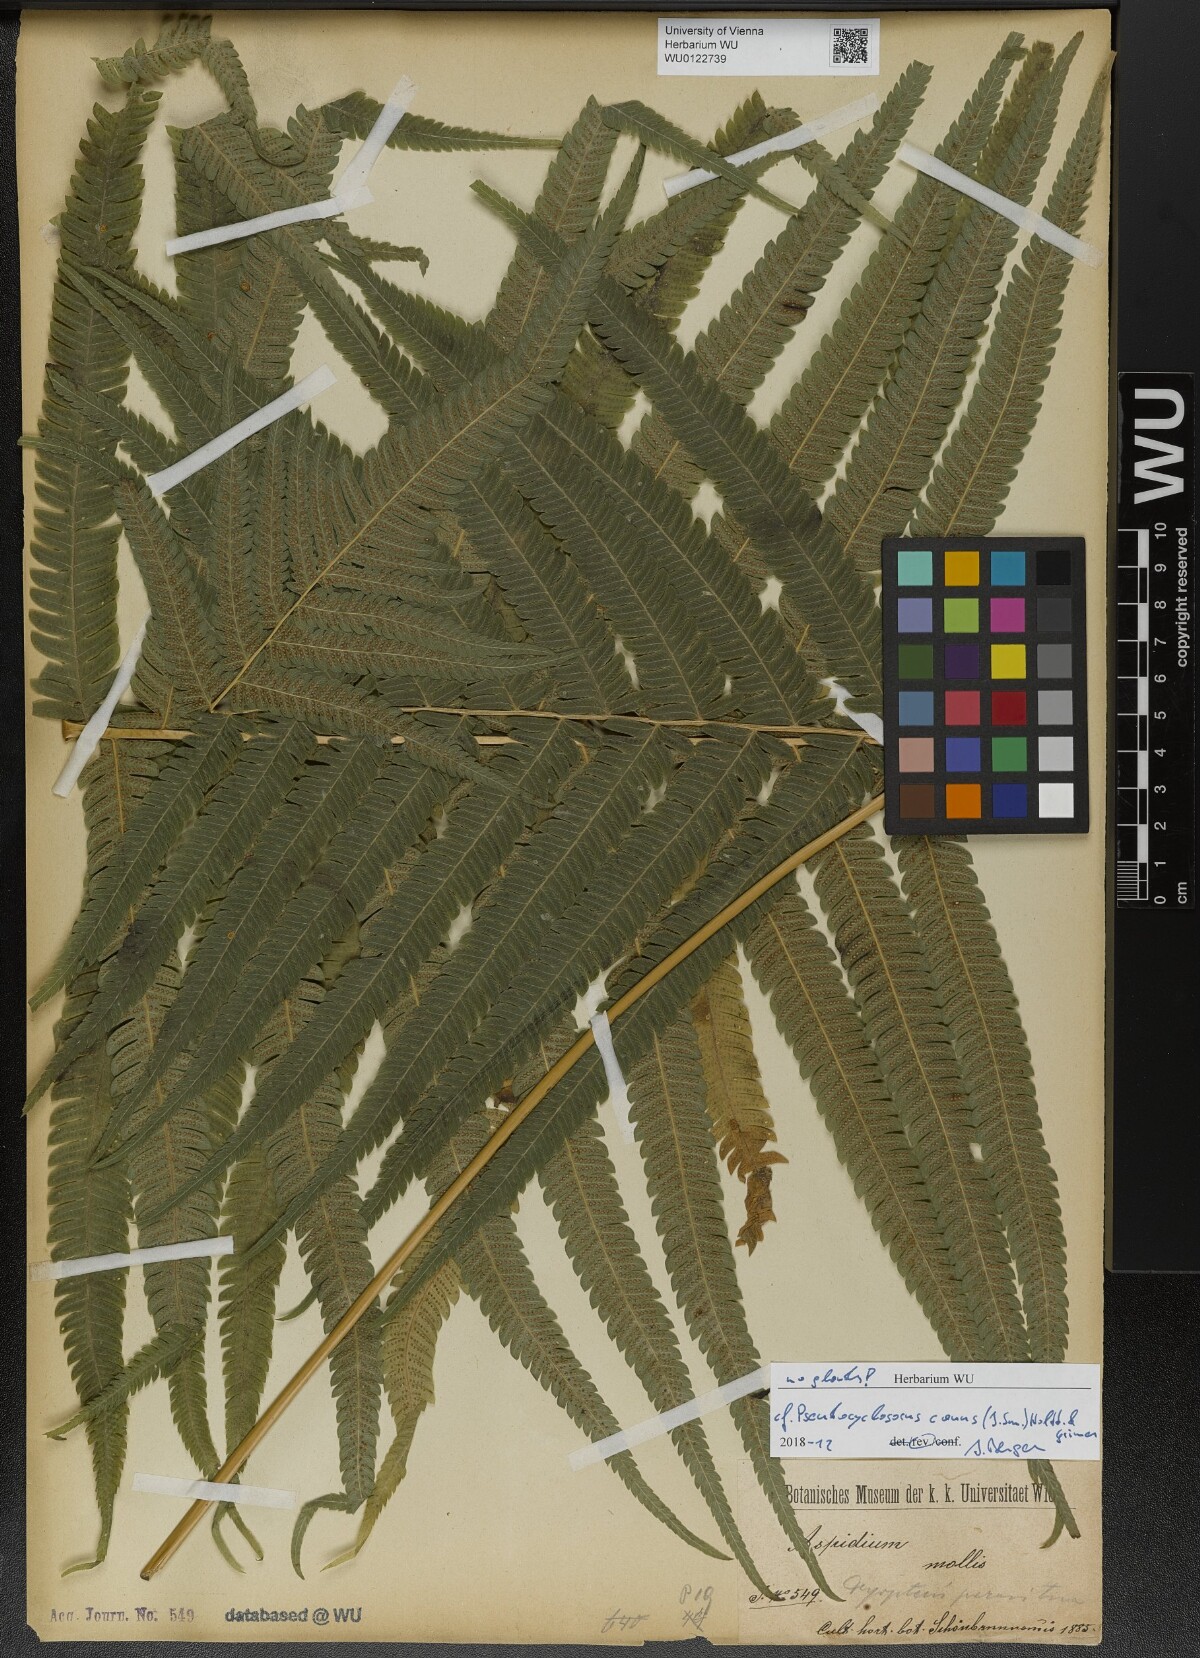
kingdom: Plantae
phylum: Tracheophyta
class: Polypodiopsida
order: Polypodiales
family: Thelypteridaceae
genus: Pseudocyclosorus
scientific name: Pseudocyclosorus canus
